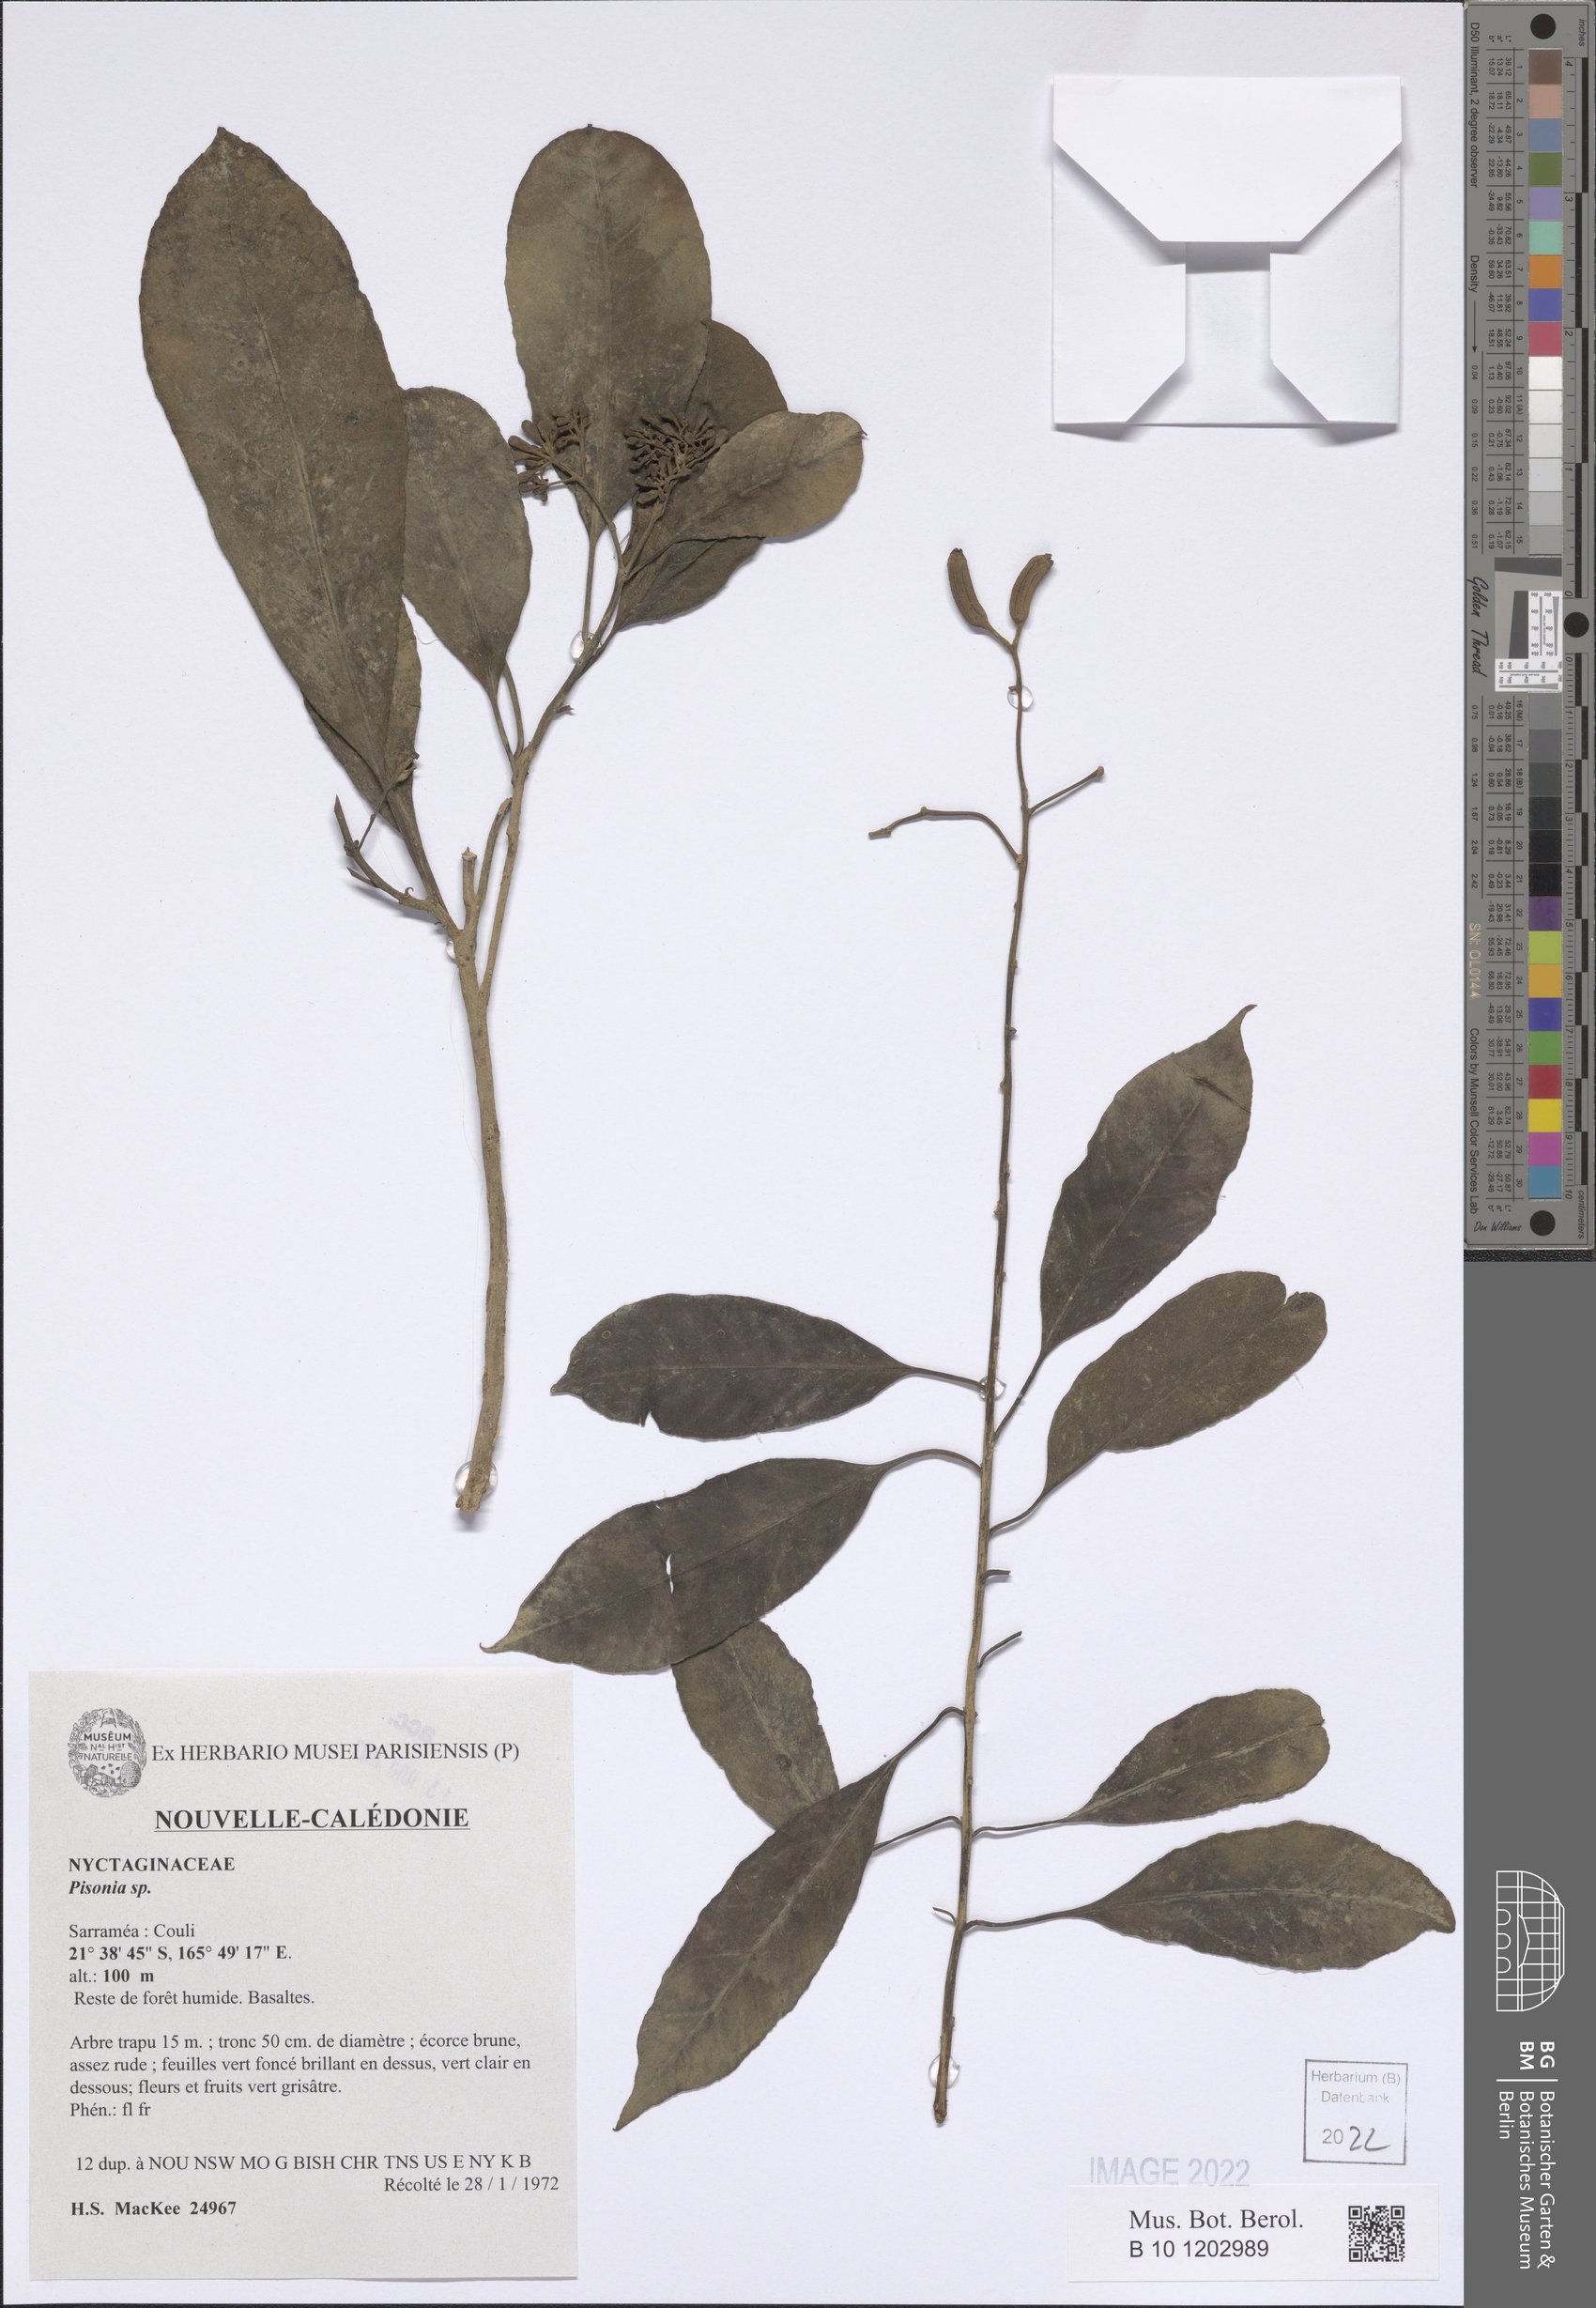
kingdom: Plantae
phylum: Tracheophyta
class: Magnoliopsida
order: Caryophyllales
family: Nyctaginaceae
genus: Pisonia
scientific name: Pisonia
